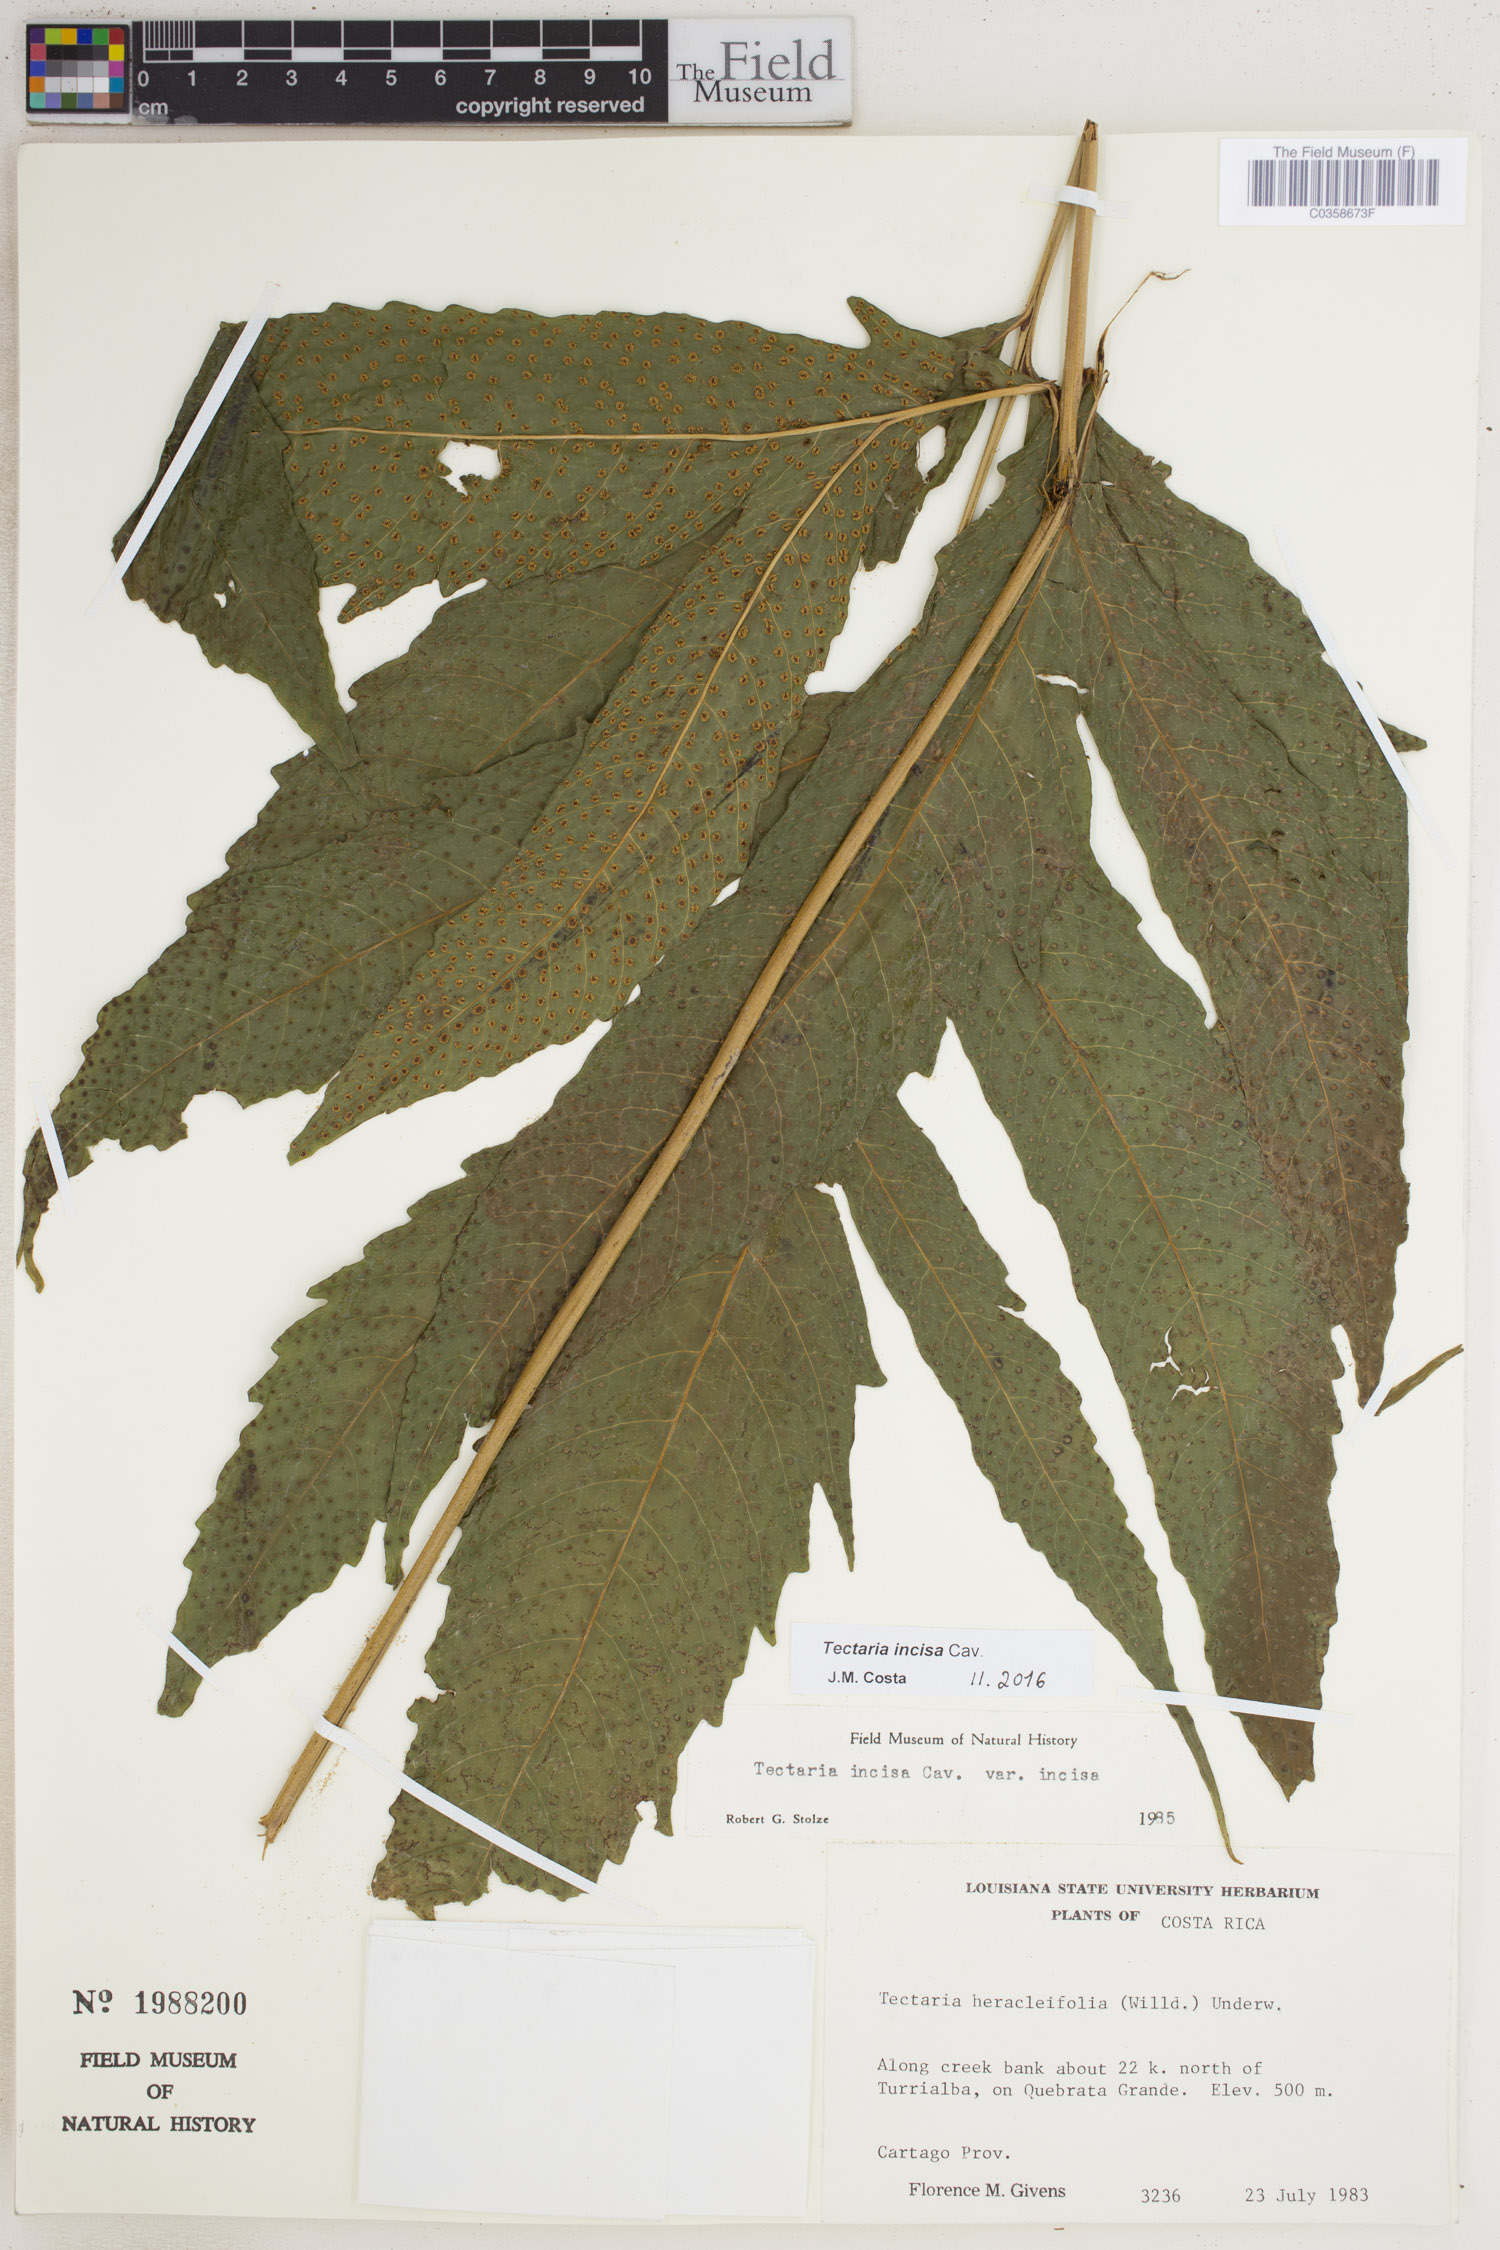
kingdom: Plantae
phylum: Tracheophyta
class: Polypodiopsida
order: Polypodiales
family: Tectariaceae
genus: Tectaria
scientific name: Tectaria incisa
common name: Incised halberd fern
